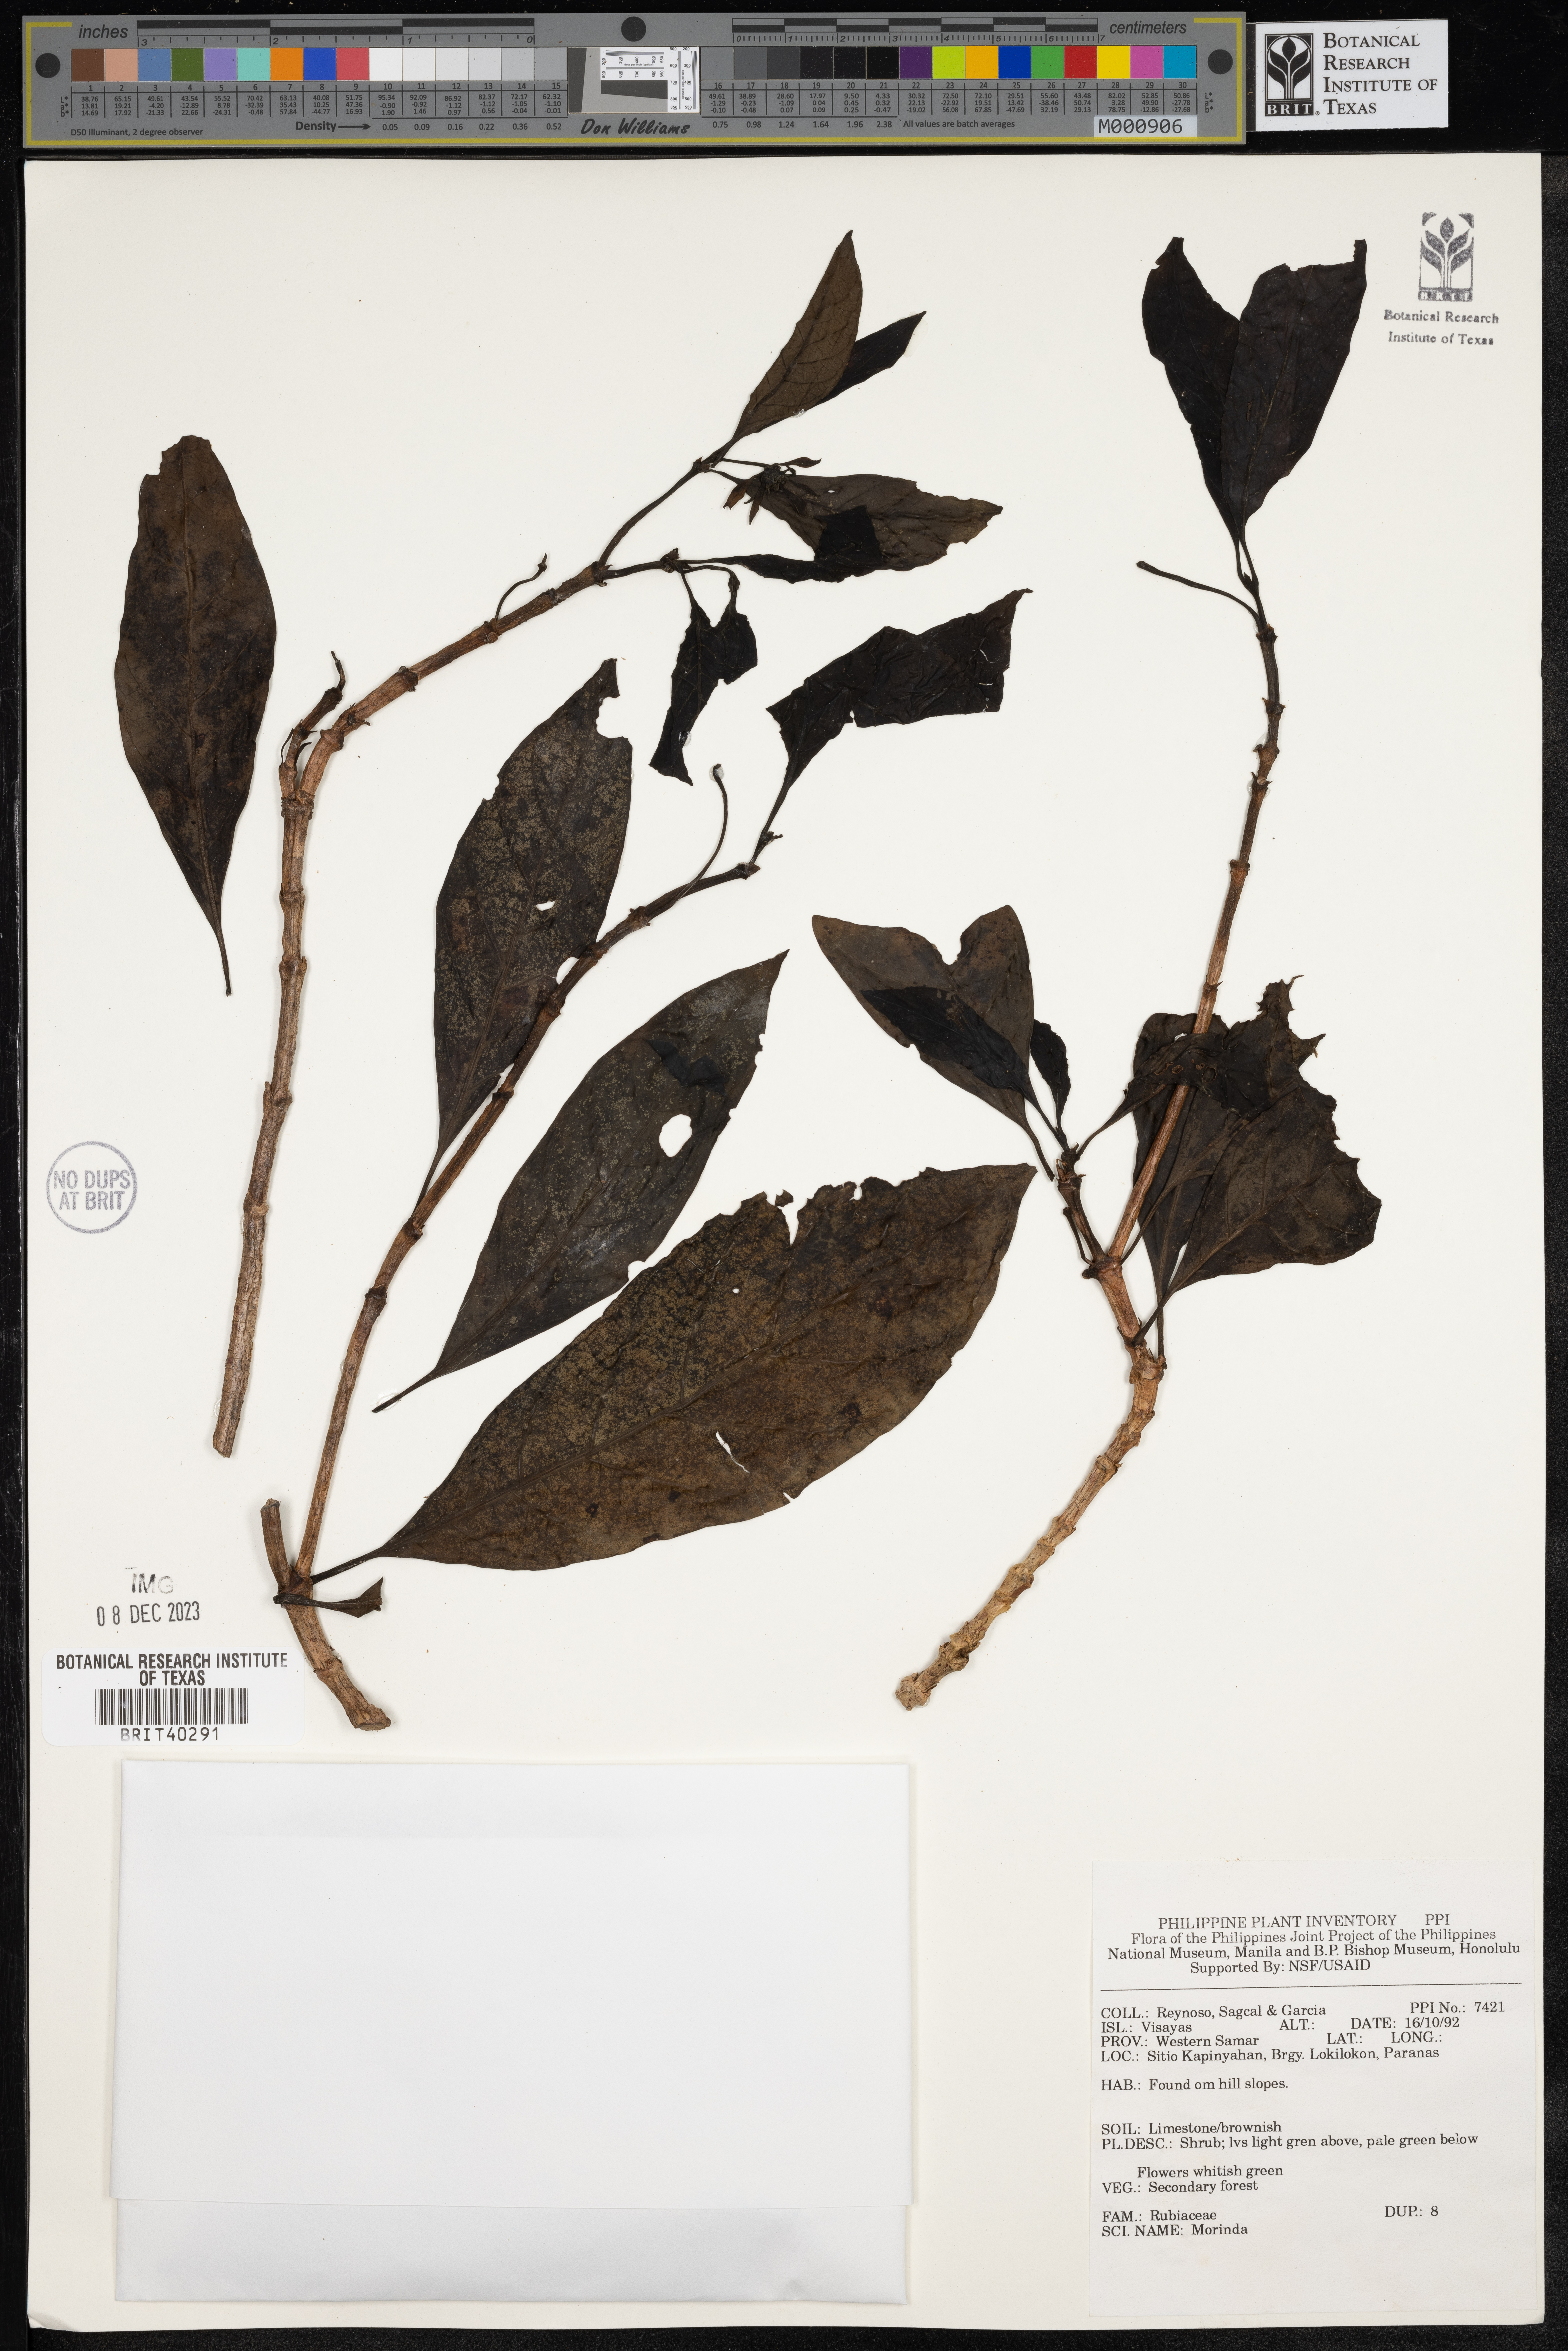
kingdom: Plantae
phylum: Tracheophyta
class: Magnoliopsida
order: Gentianales
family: Rubiaceae
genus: Morinda
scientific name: Morinda
